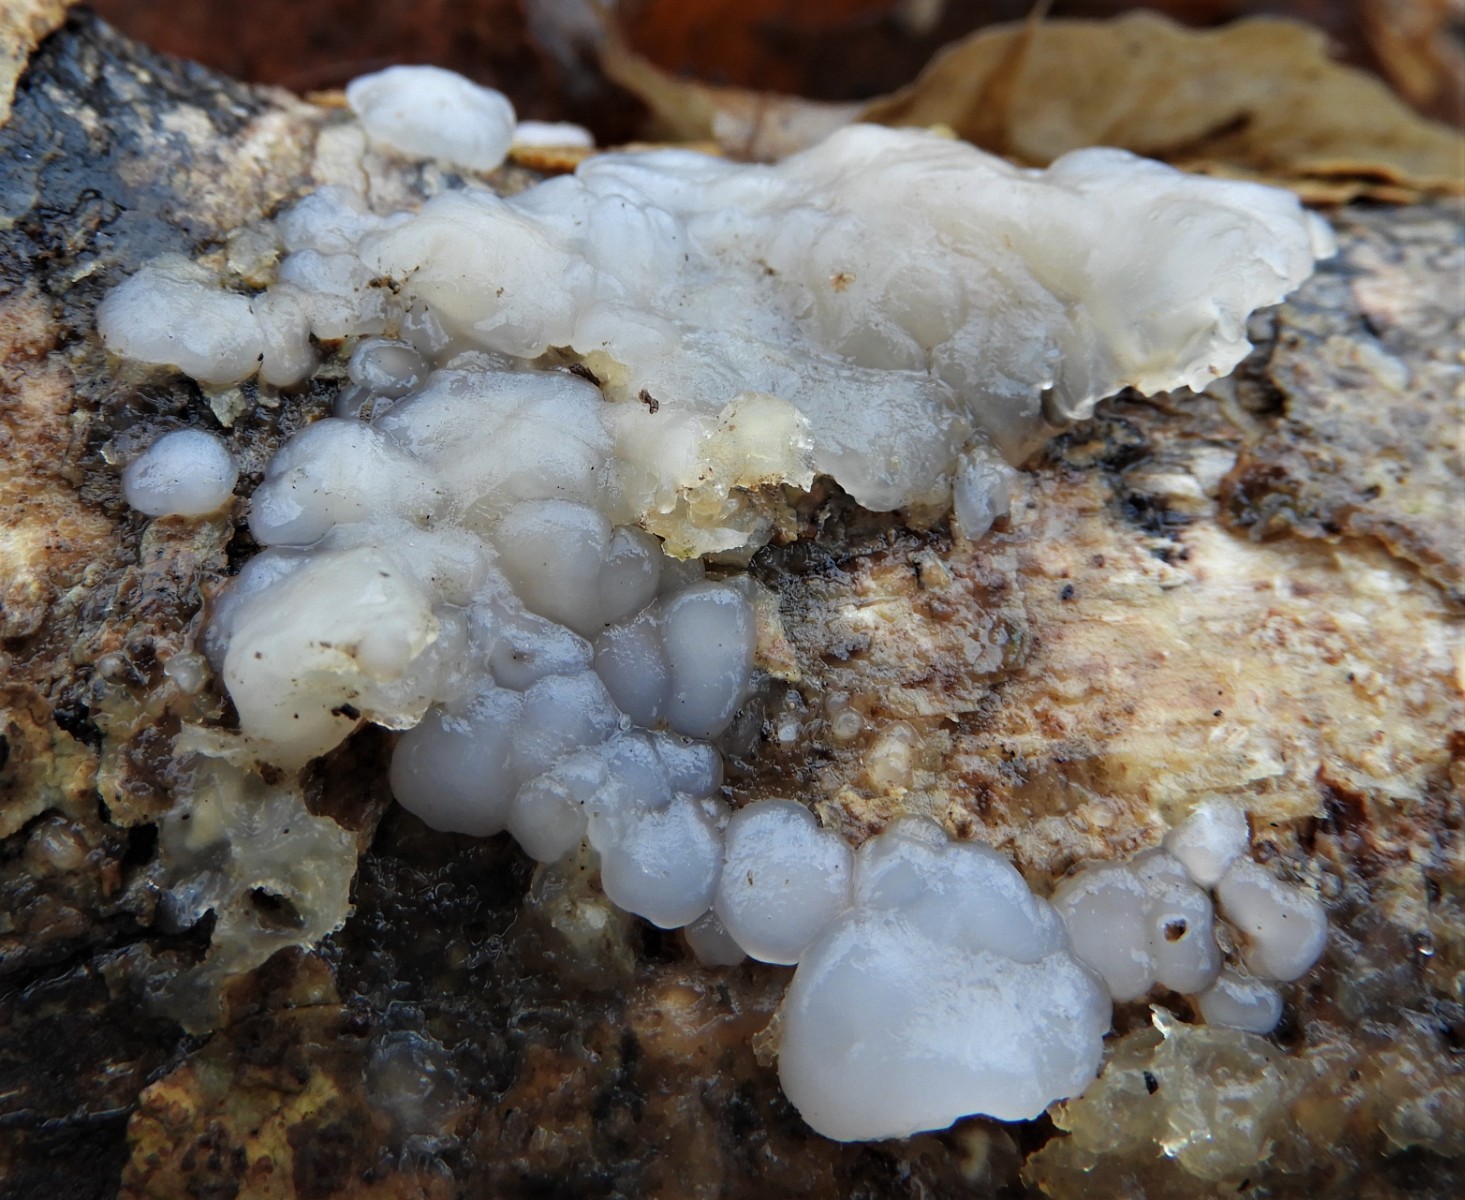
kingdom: Fungi
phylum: Basidiomycota
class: Agaricomycetes
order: Auriculariales
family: Auriculariaceae
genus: Exidia
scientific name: Exidia thuretiana
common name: hvidlig bævretop
